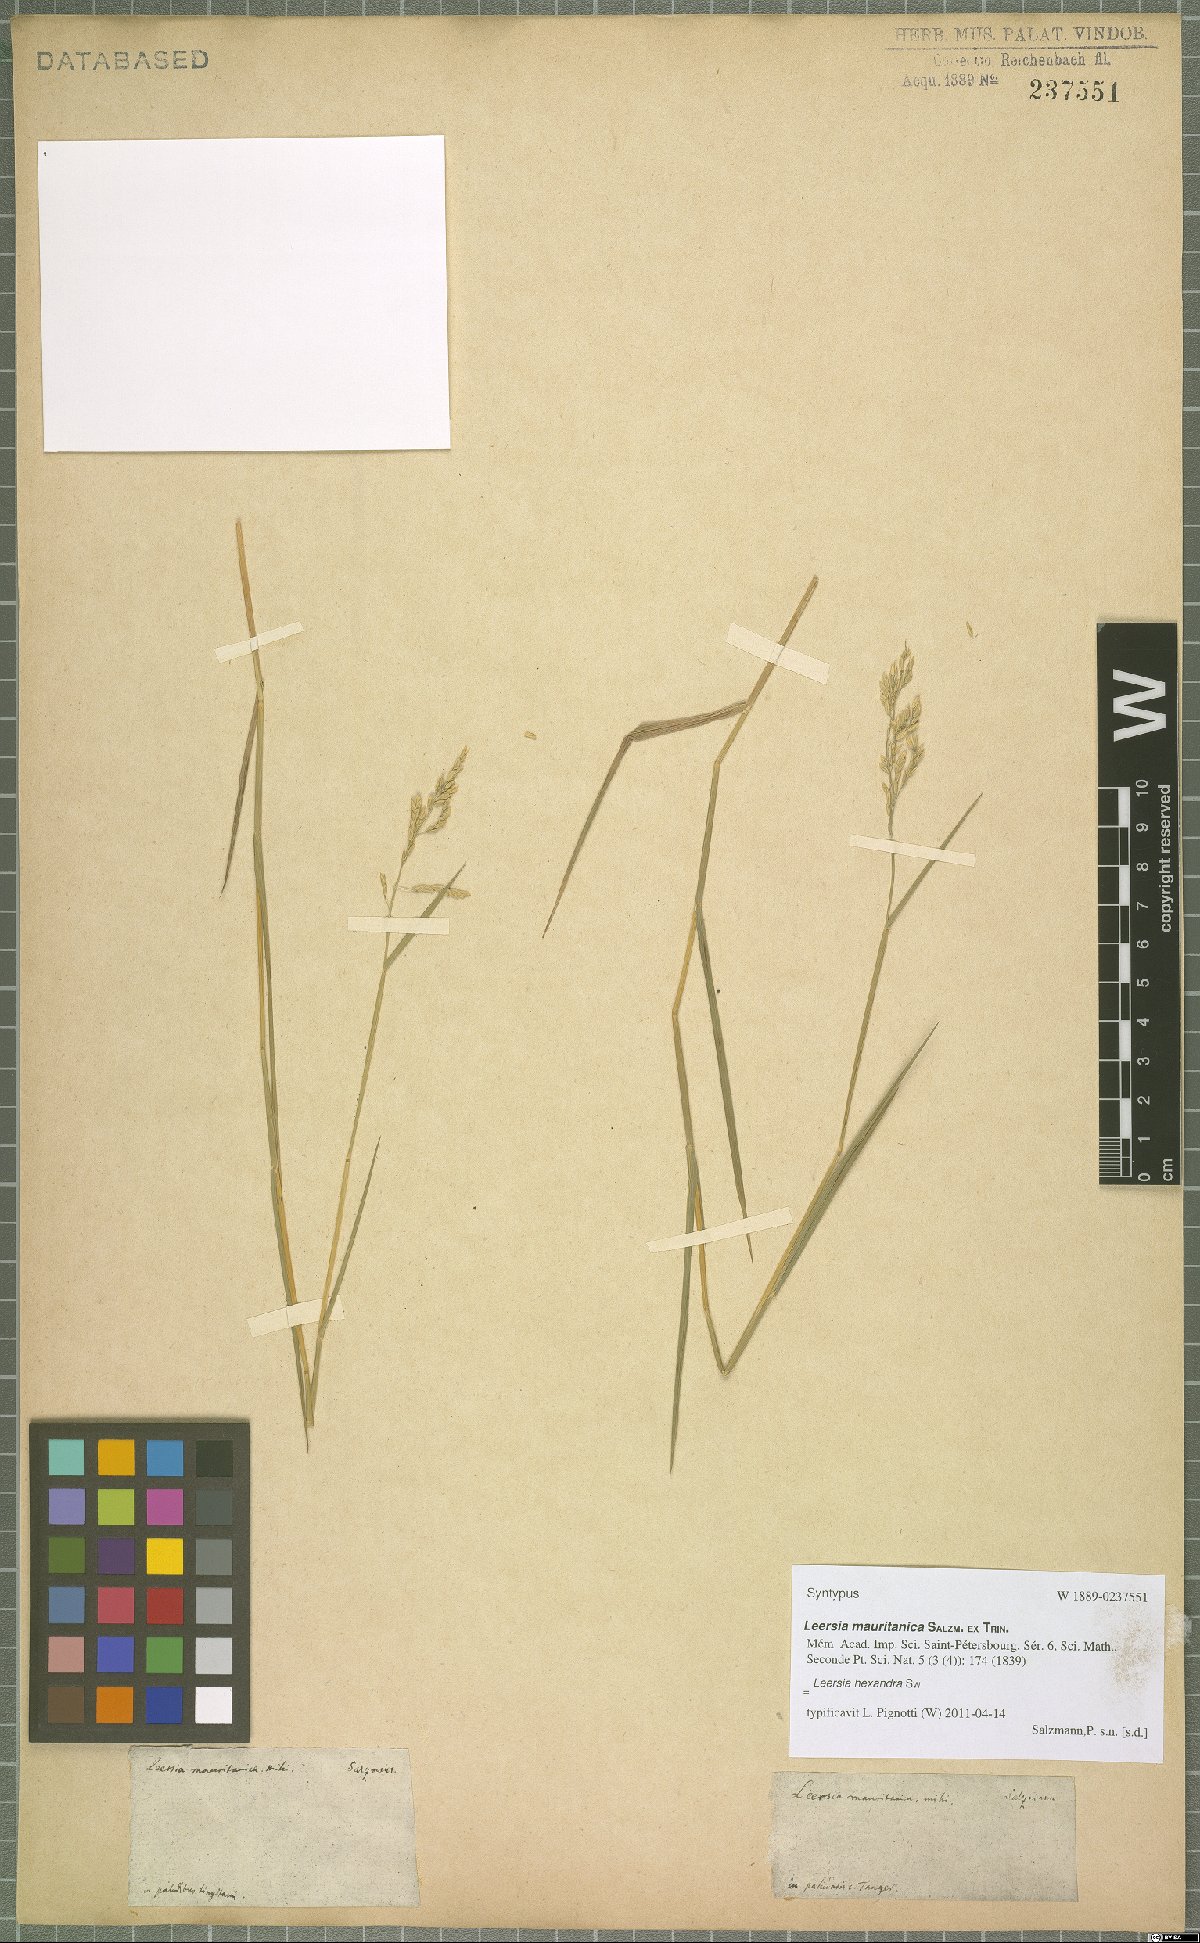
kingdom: Plantae
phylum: Tracheophyta
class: Liliopsida
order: Poales
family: Poaceae
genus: Leersia
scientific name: Leersia hexandra
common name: Southern cut grass
